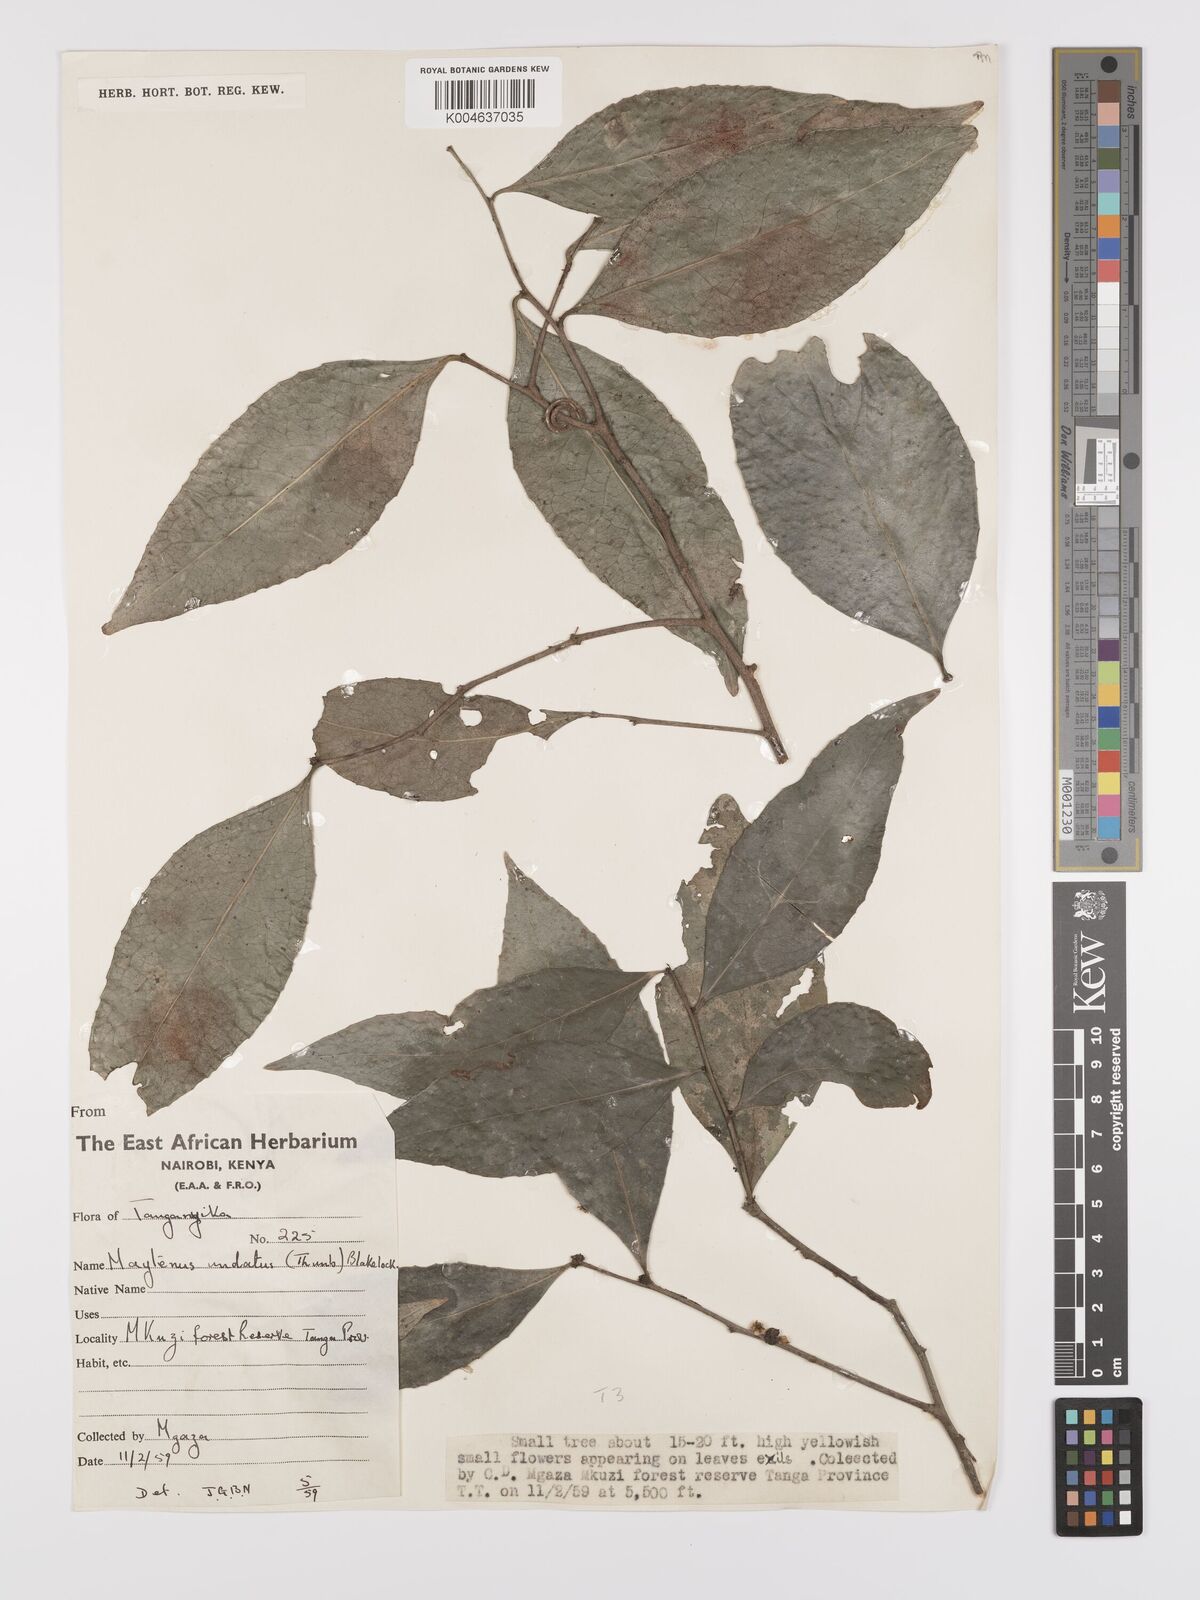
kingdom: Plantae
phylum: Tracheophyta
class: Magnoliopsida
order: Celastrales
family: Celastraceae
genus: Gymnosporia
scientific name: Gymnosporia undata
